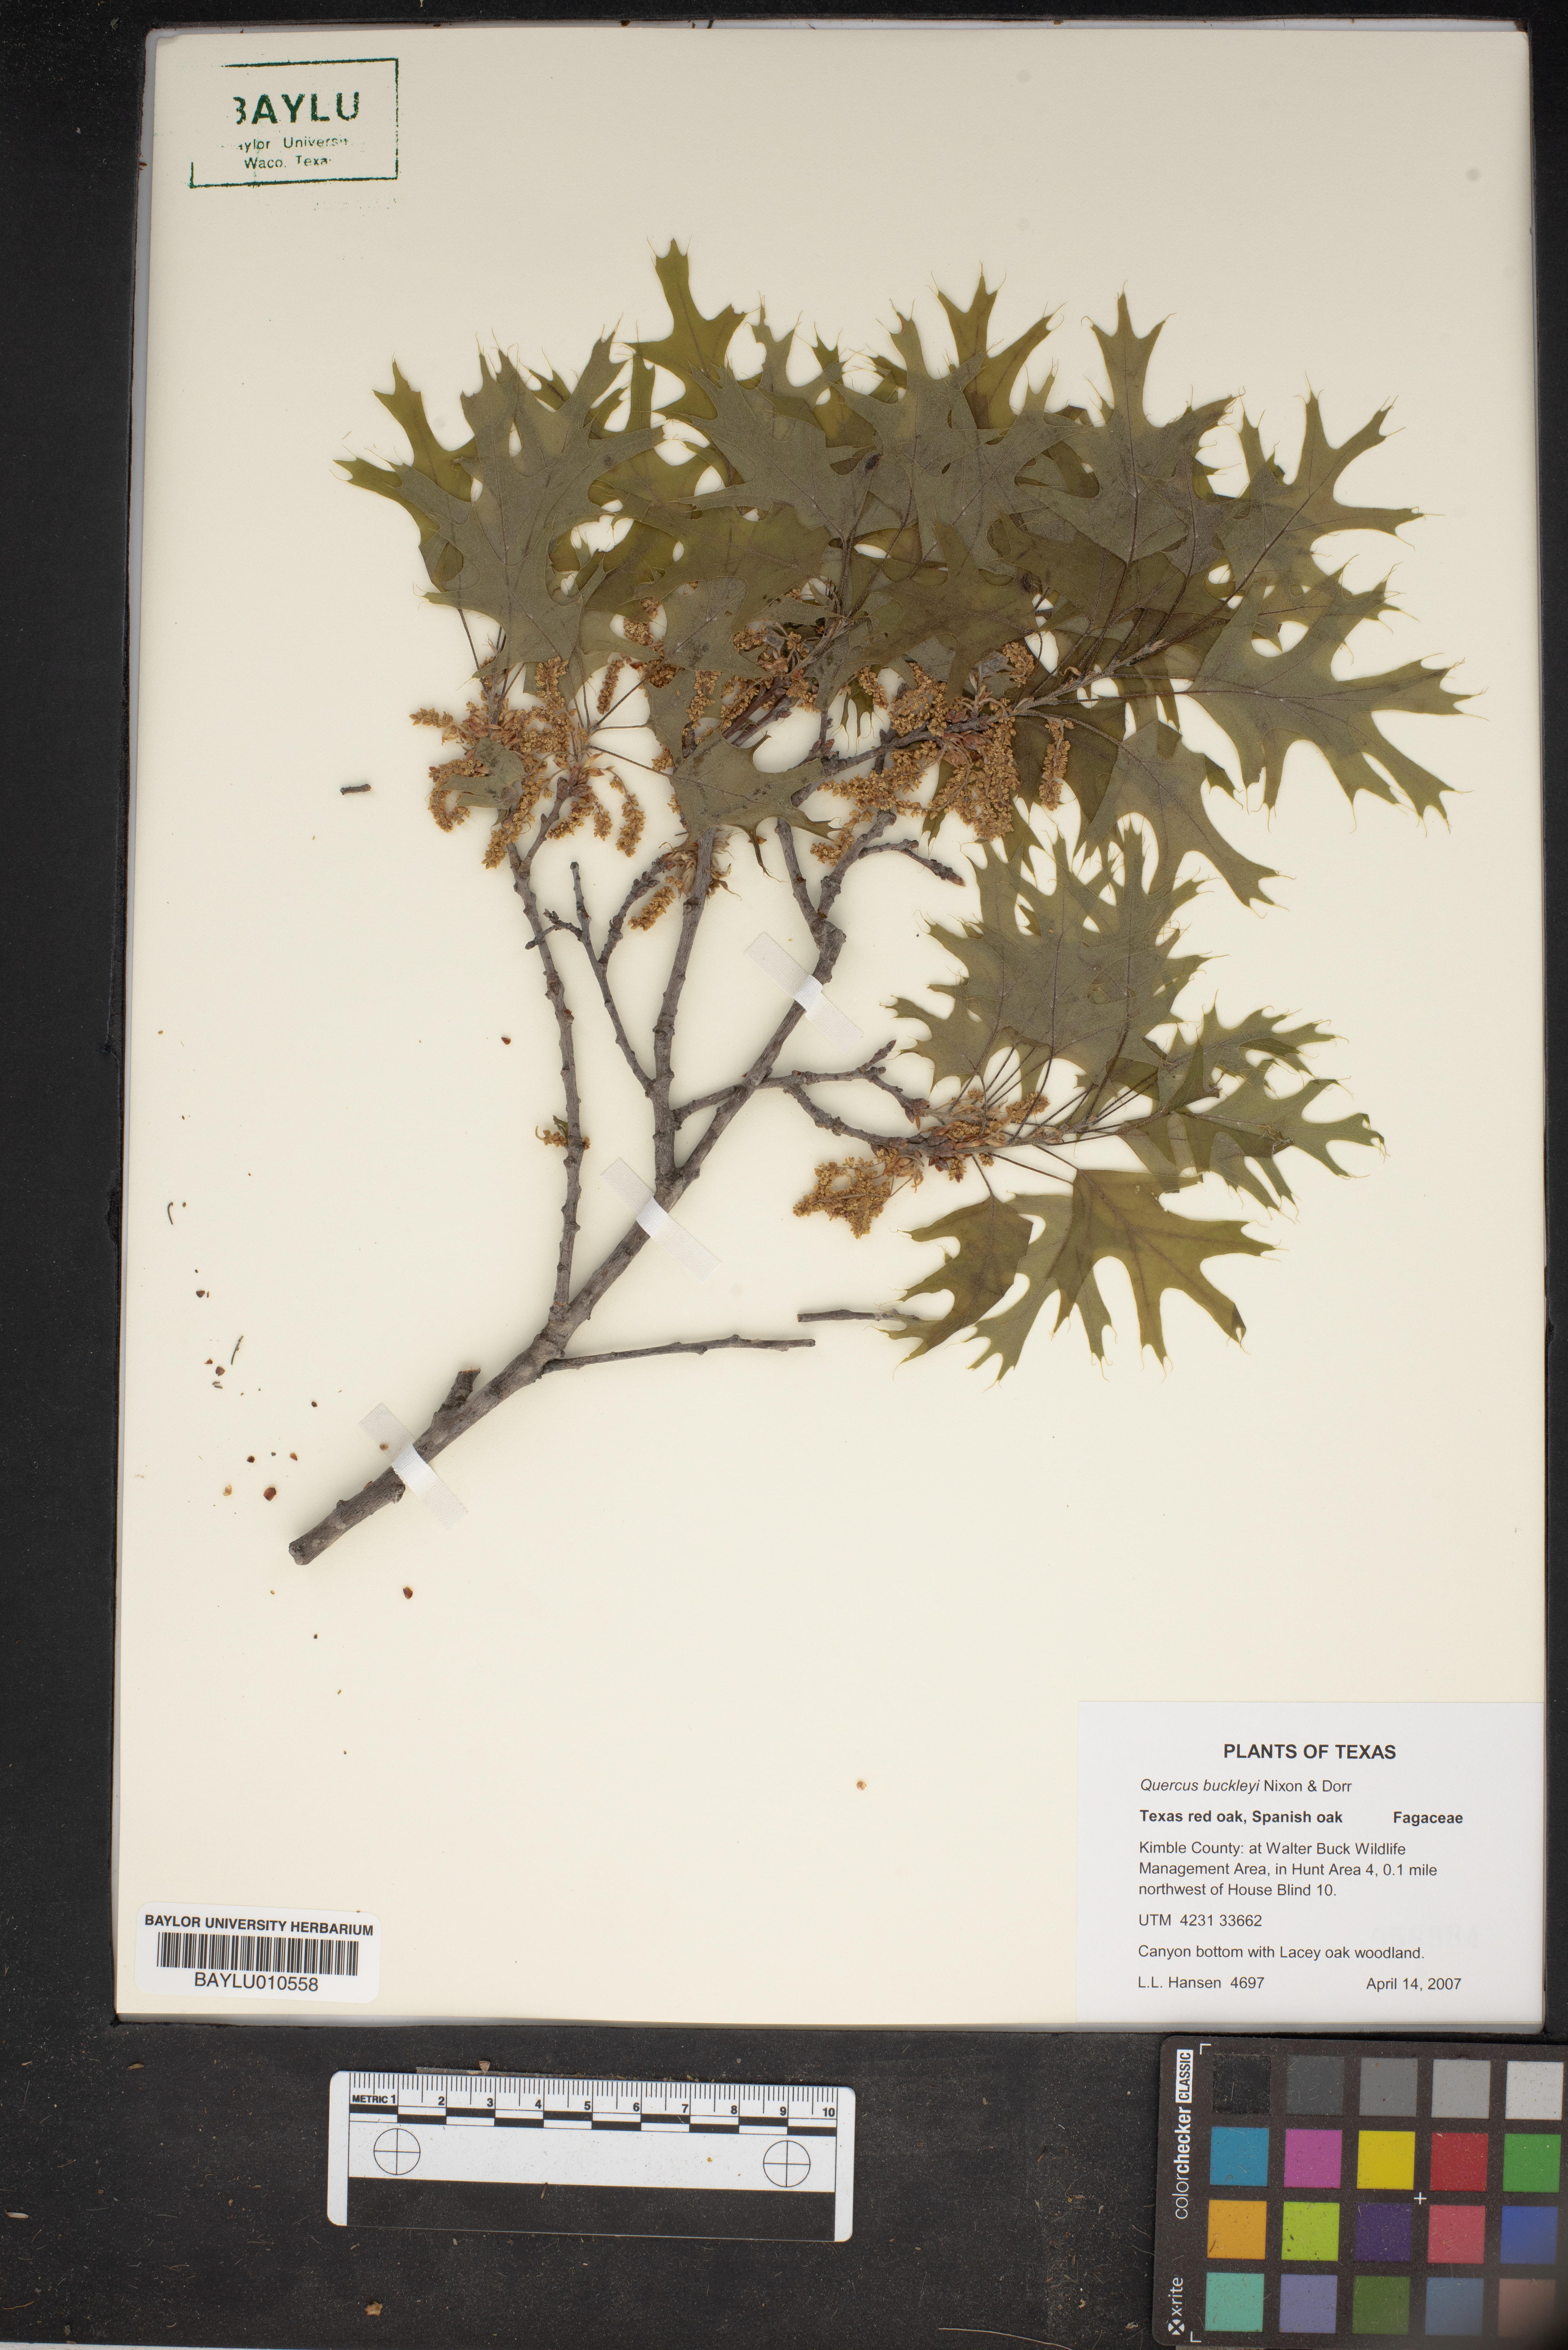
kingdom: Plantae
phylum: Tracheophyta
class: Magnoliopsida
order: Fagales
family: Fagaceae
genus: Quercus
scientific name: Quercus buckleyi
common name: Buckley oak
